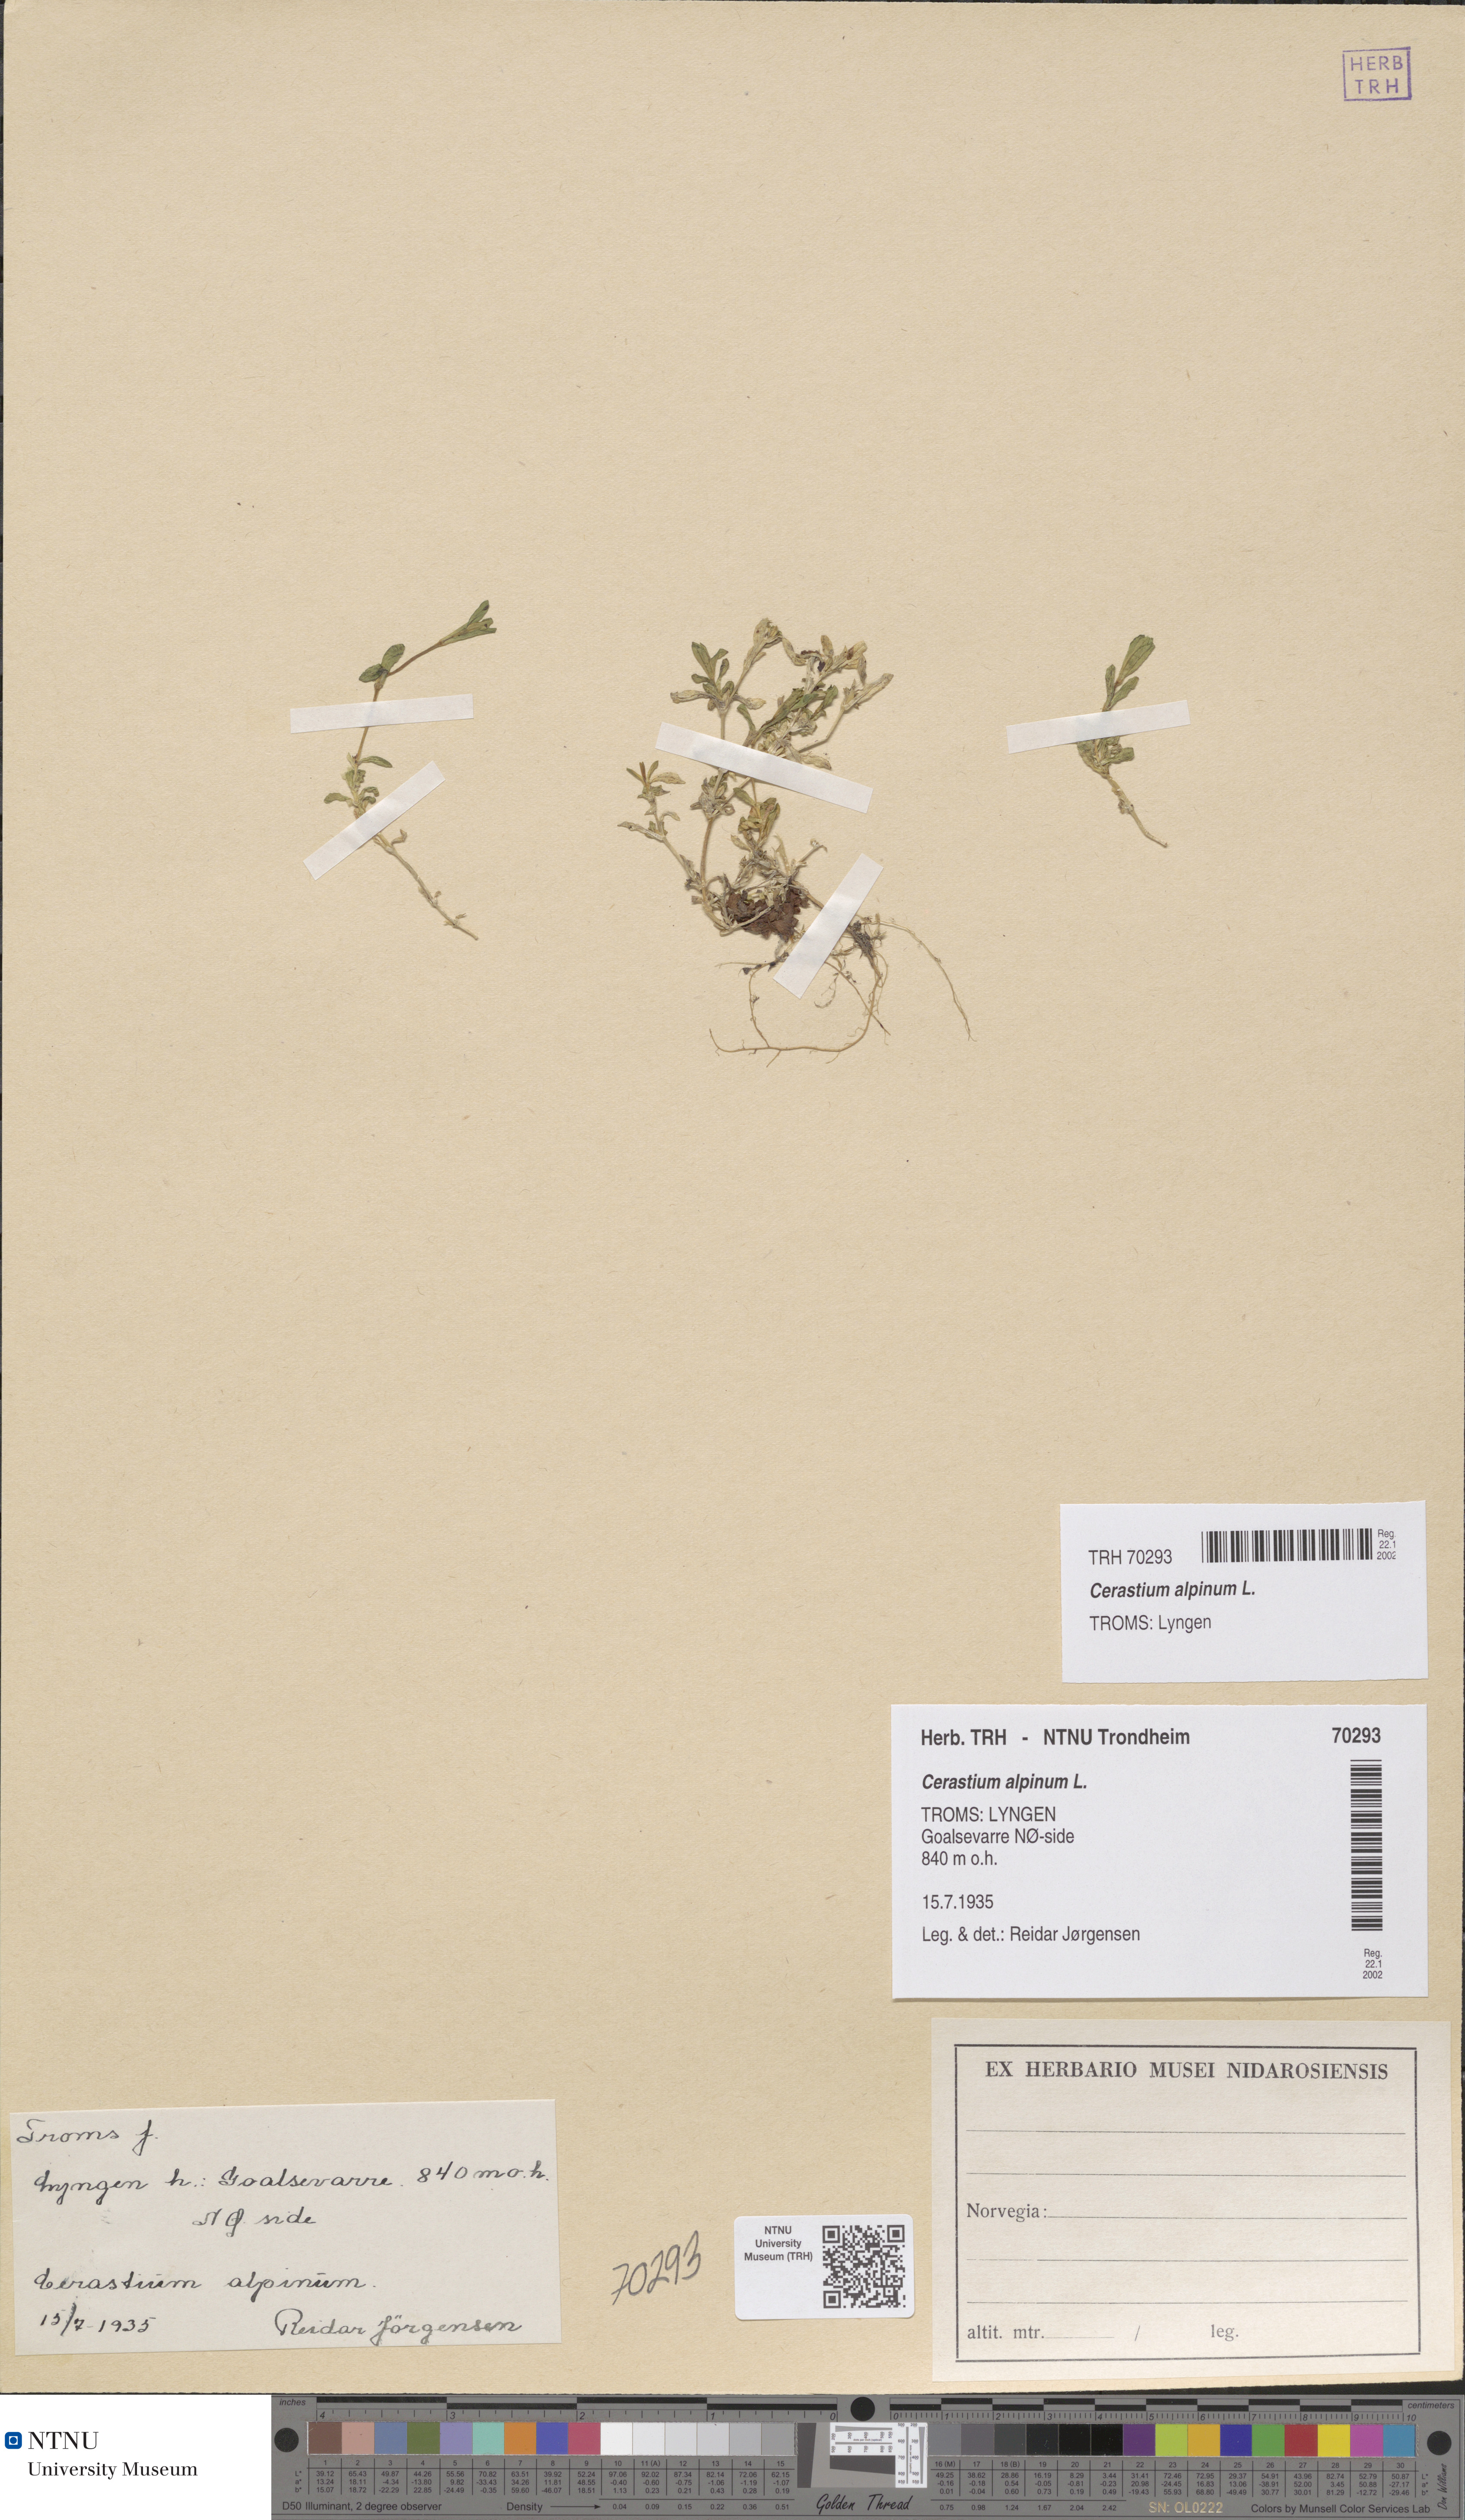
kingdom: Plantae
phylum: Tracheophyta
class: Magnoliopsida
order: Caryophyllales
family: Caryophyllaceae
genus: Cerastium
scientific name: Cerastium alpinum
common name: Alpine mouse-ear
